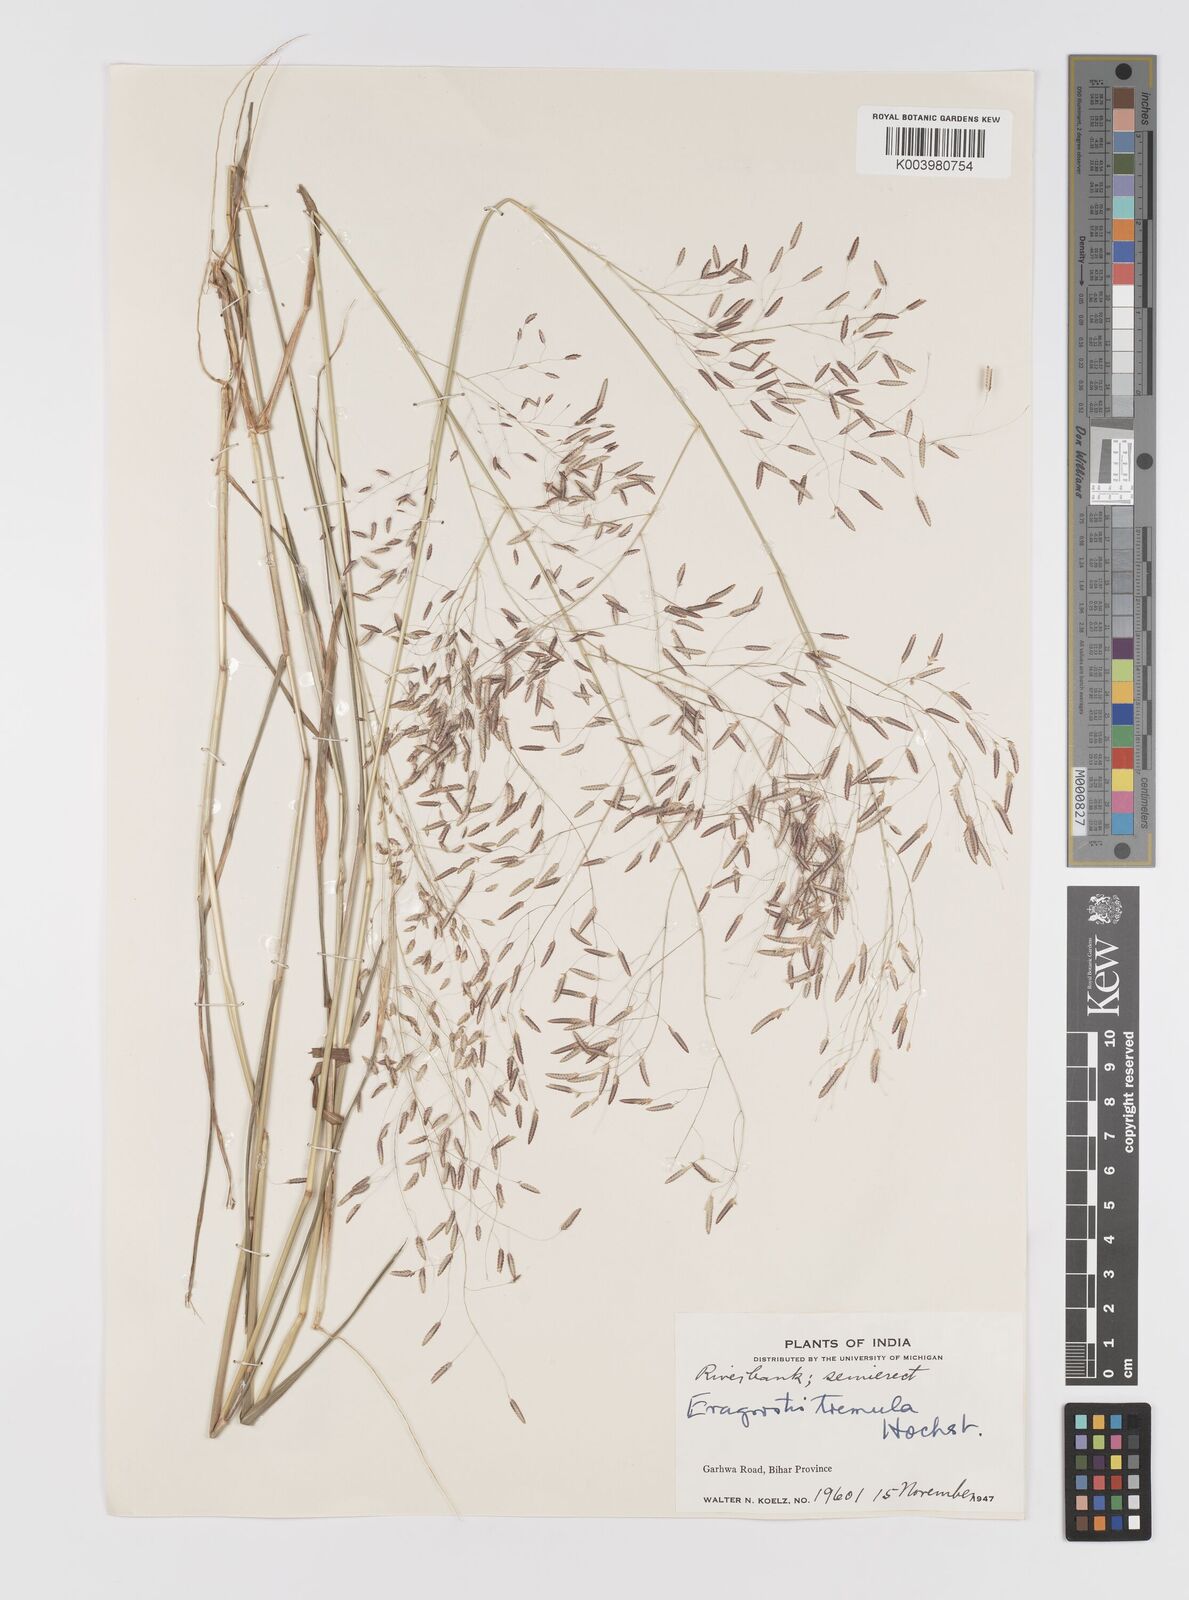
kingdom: Plantae
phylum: Tracheophyta
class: Liliopsida
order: Poales
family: Poaceae
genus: Eragrostis
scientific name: Eragrostis tremula
